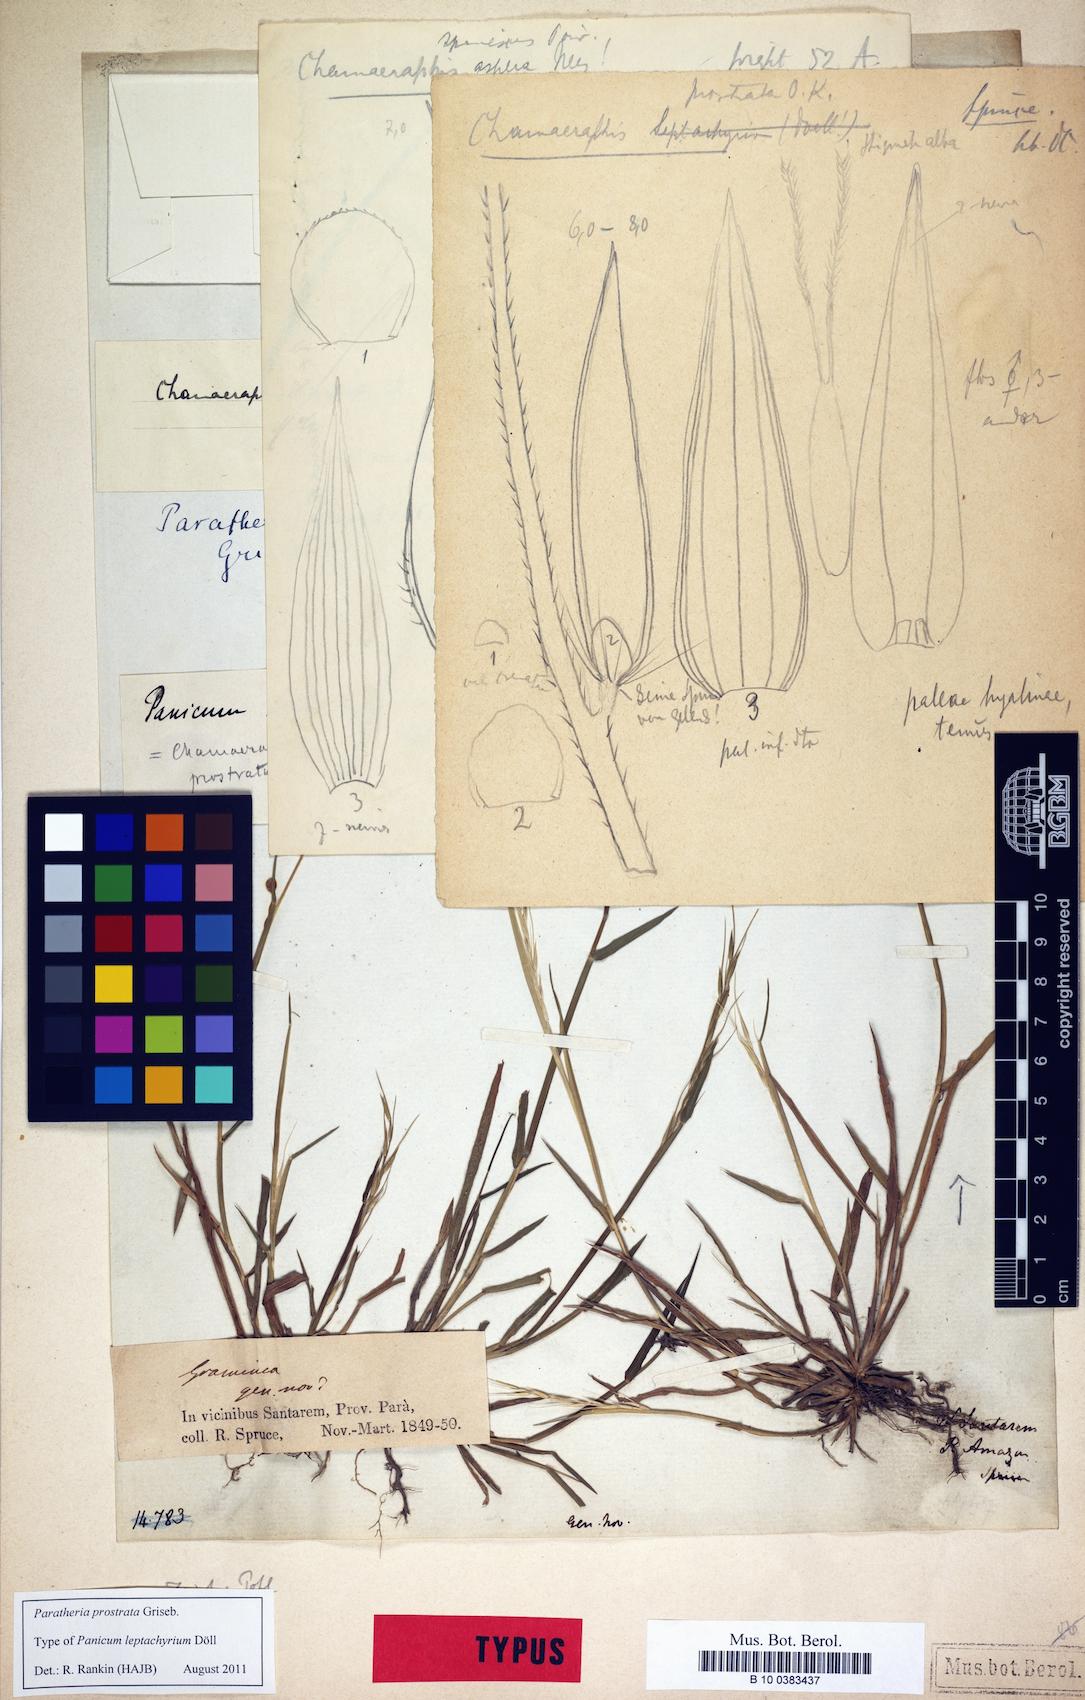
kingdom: Plantae
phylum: Tracheophyta
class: Liliopsida
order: Poales
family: Poaceae
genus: Paratheria
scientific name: Paratheria prostrata
